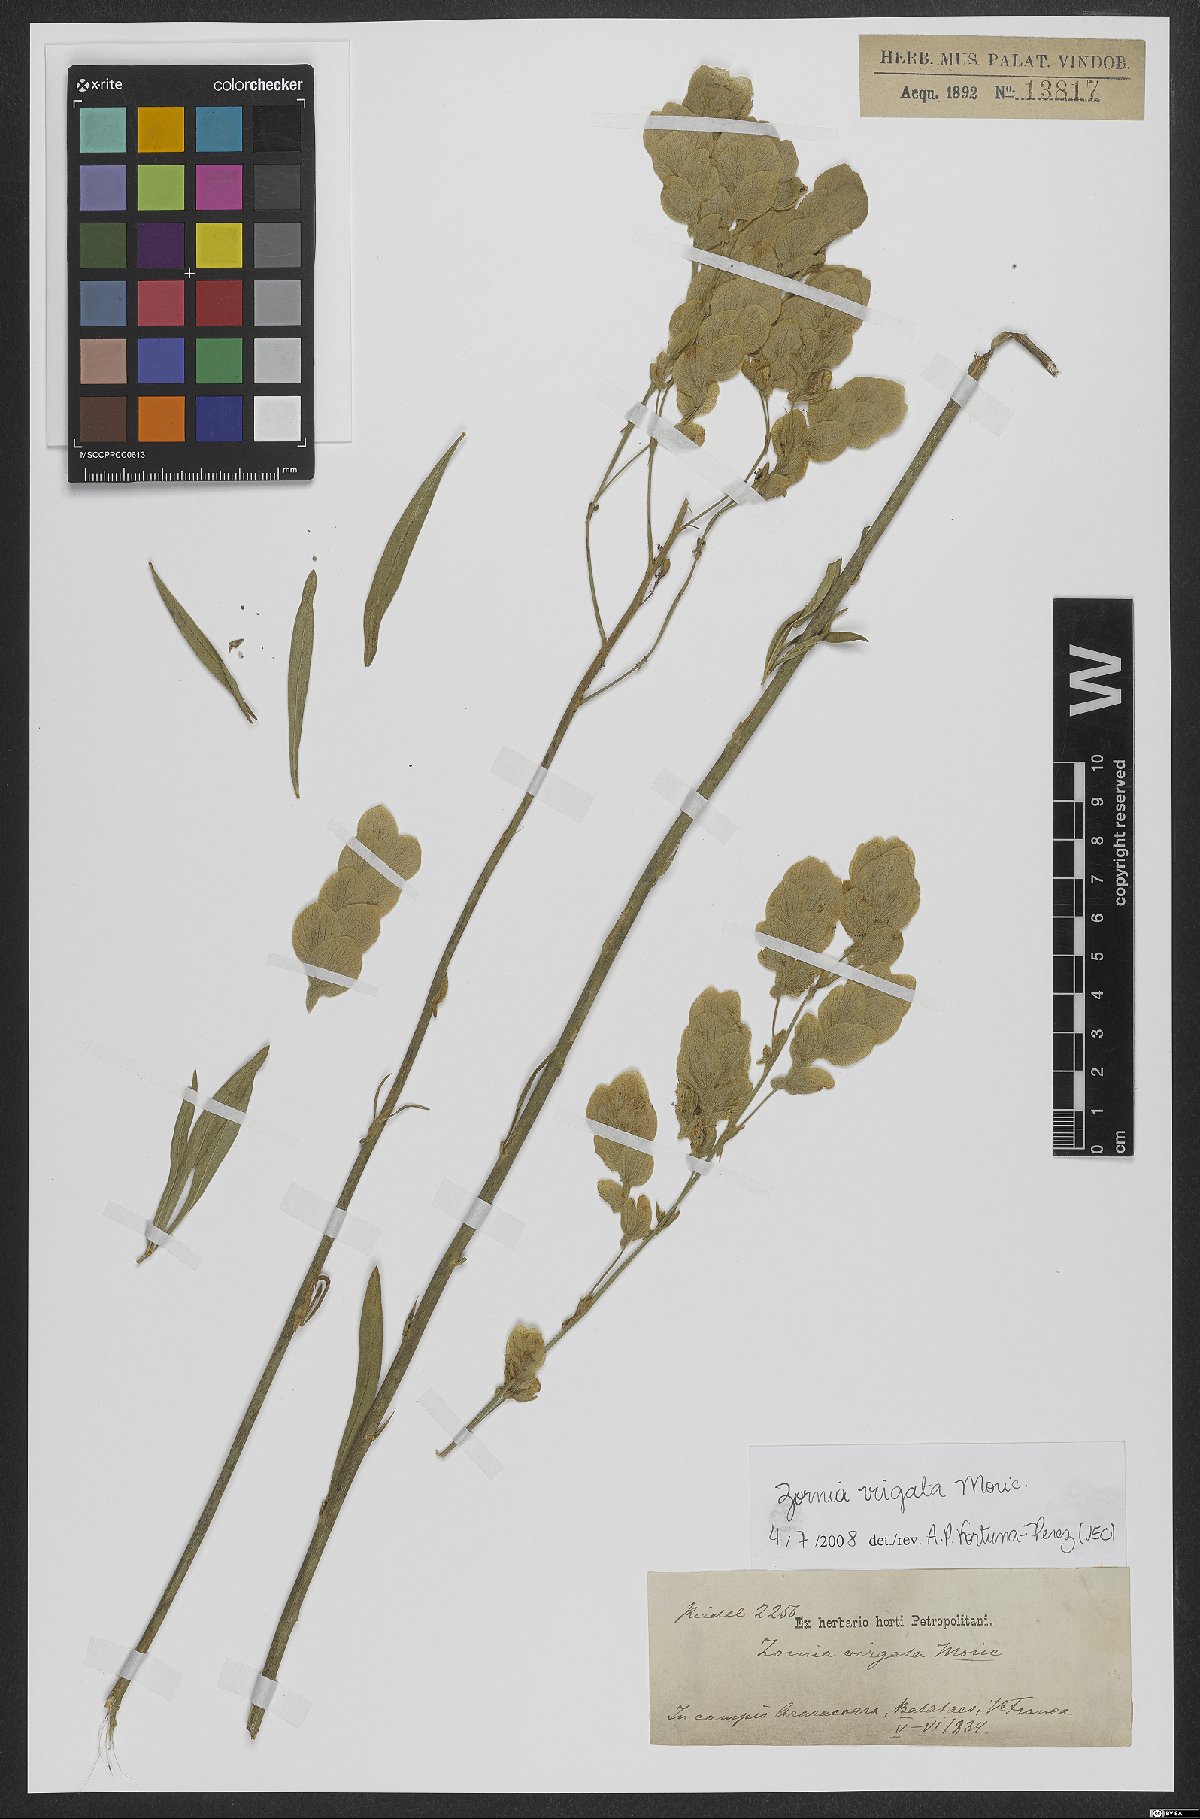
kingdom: Plantae
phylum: Tracheophyta
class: Magnoliopsida
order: Fabales
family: Fabaceae
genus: Zornia
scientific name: Zornia virgata
